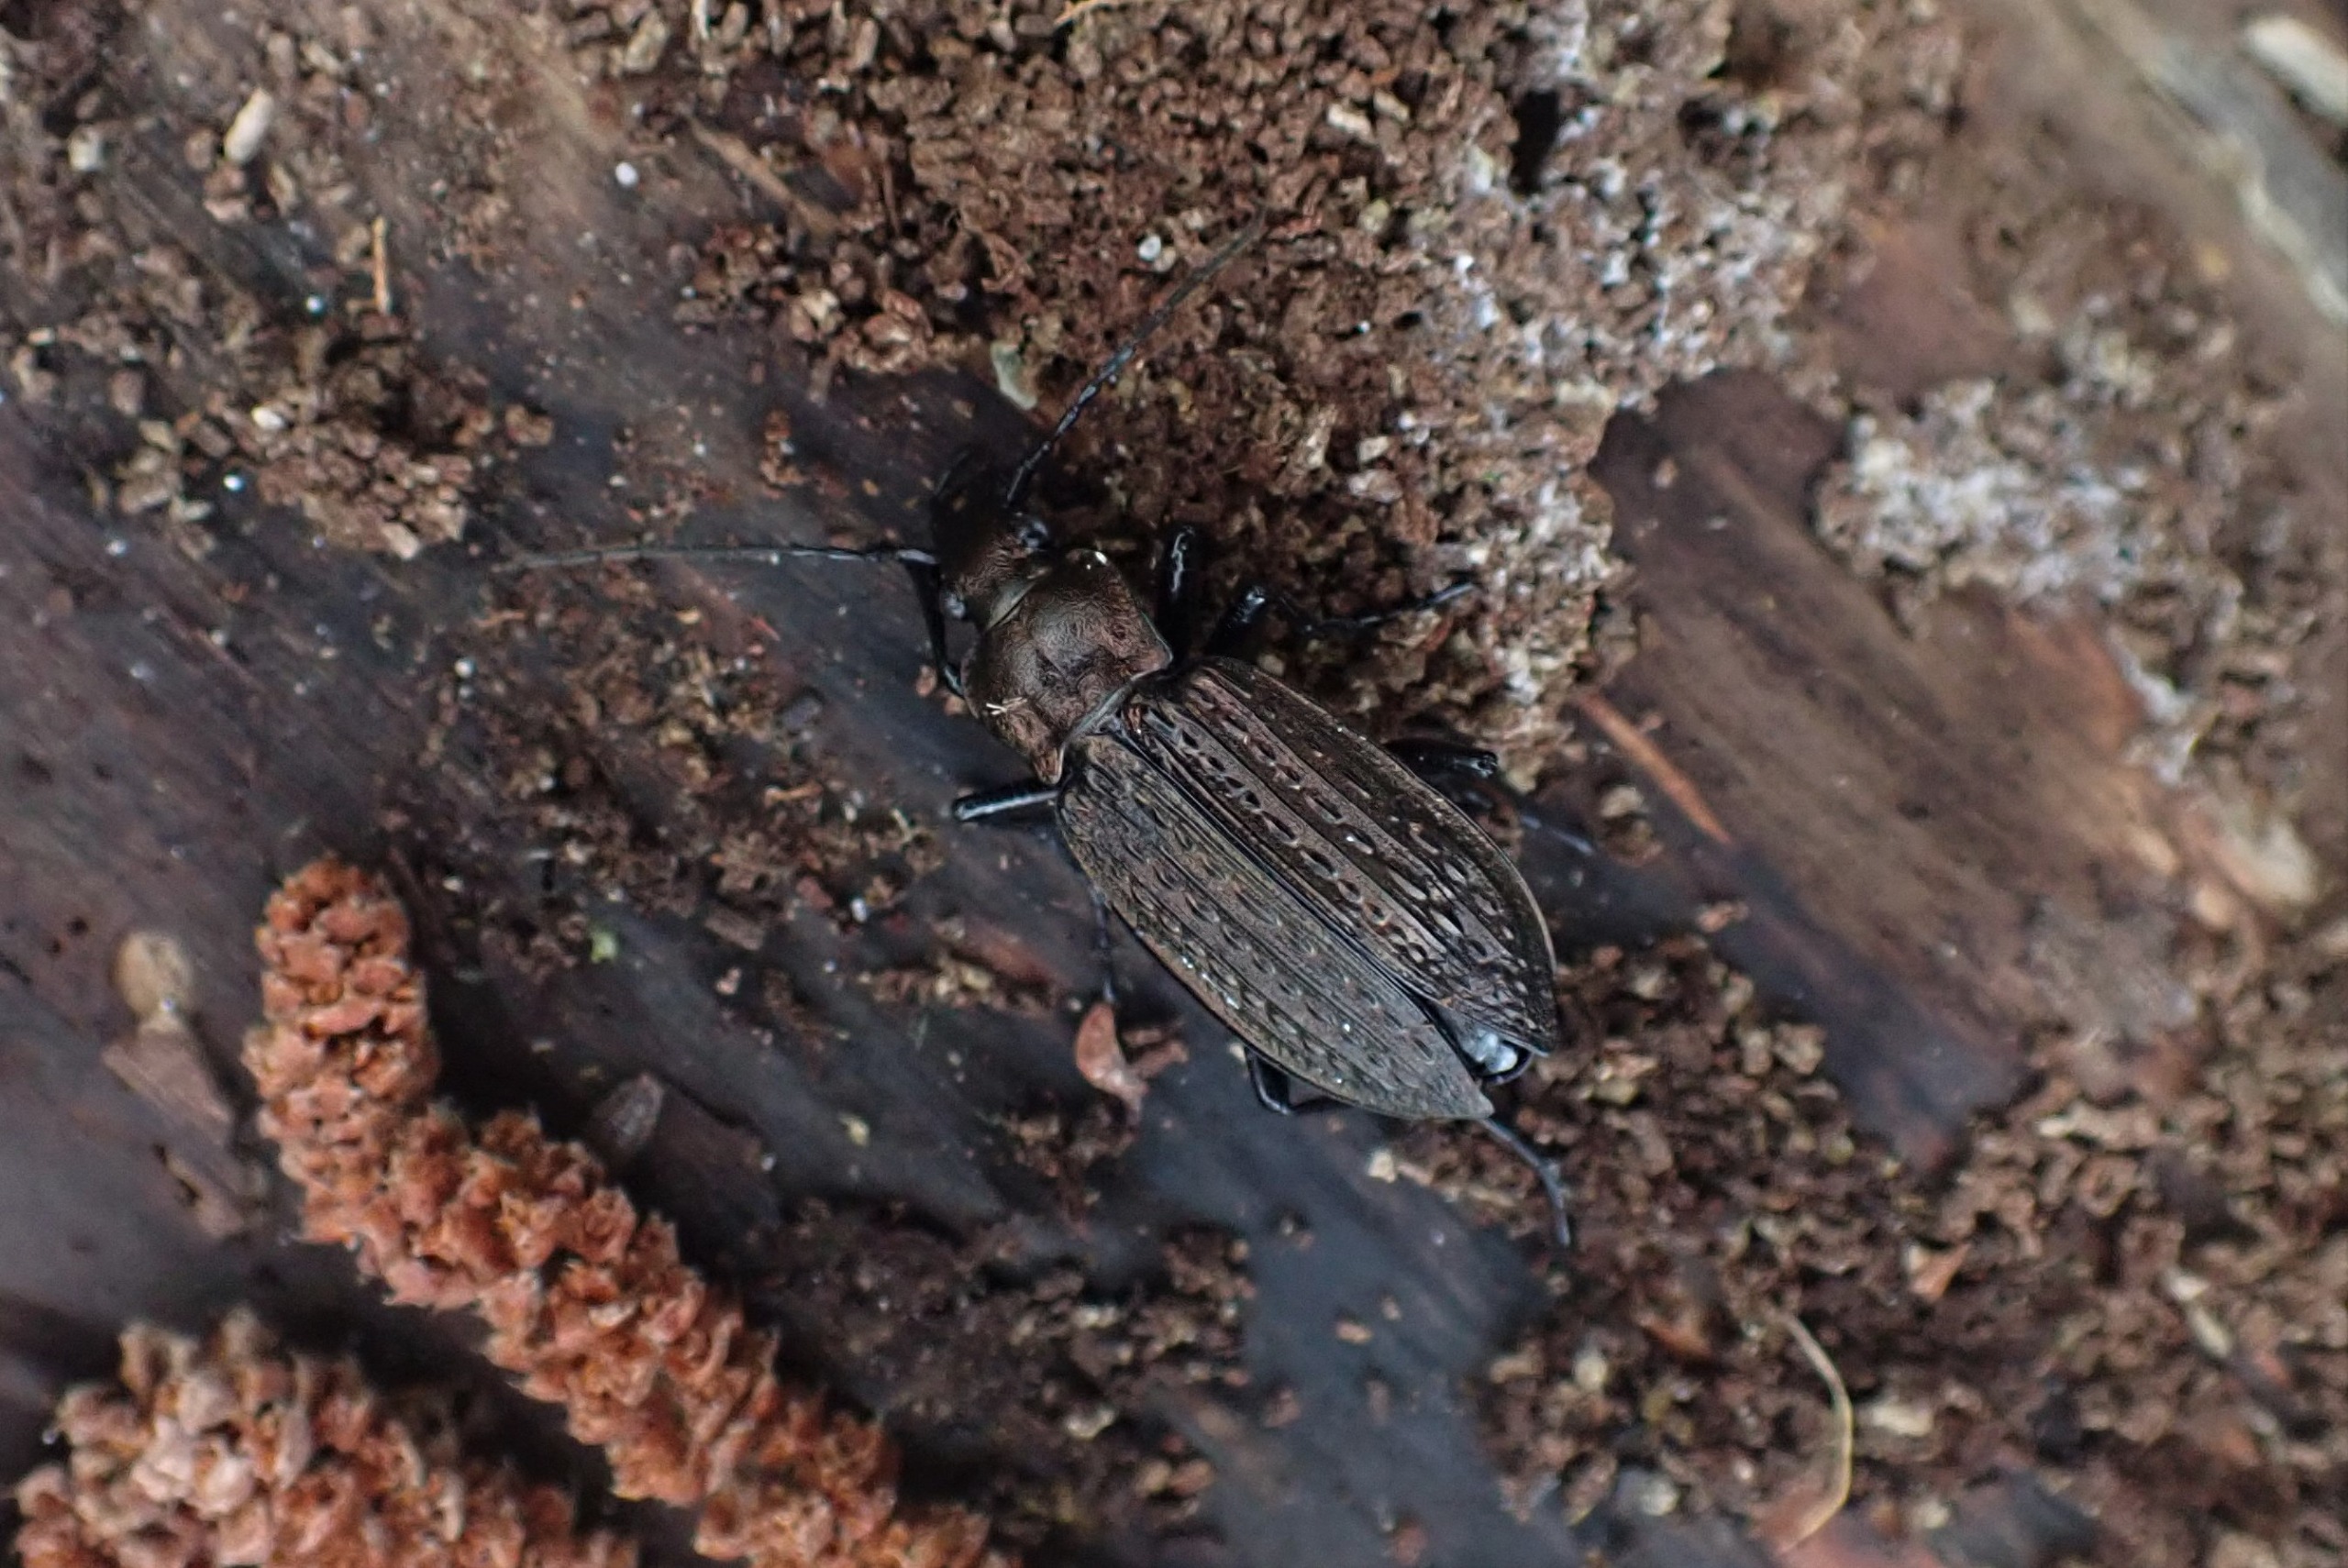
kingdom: Animalia
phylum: Arthropoda
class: Insecta
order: Coleoptera
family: Carabidae
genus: Carabus
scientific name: Carabus granulatus
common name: Kornet løber
